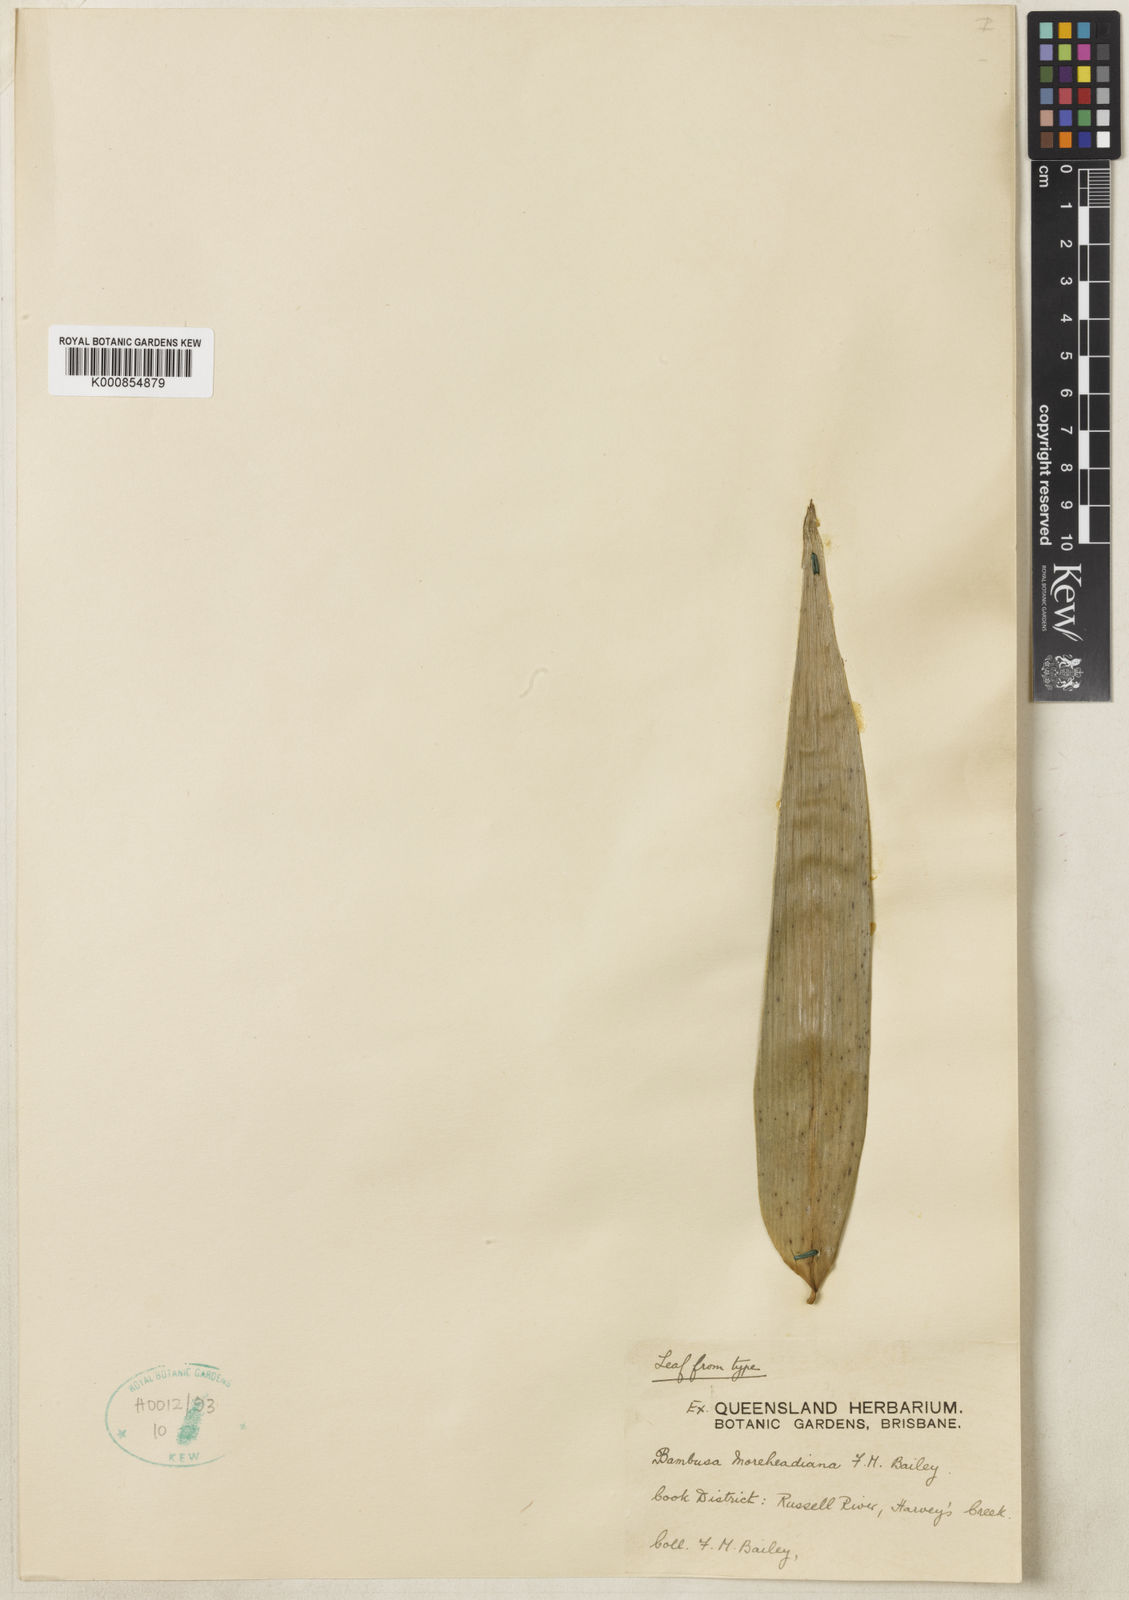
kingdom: Plantae
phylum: Tracheophyta
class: Liliopsida
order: Poales
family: Poaceae
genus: Mullerochloa
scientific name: Mullerochloa moreheadiana
